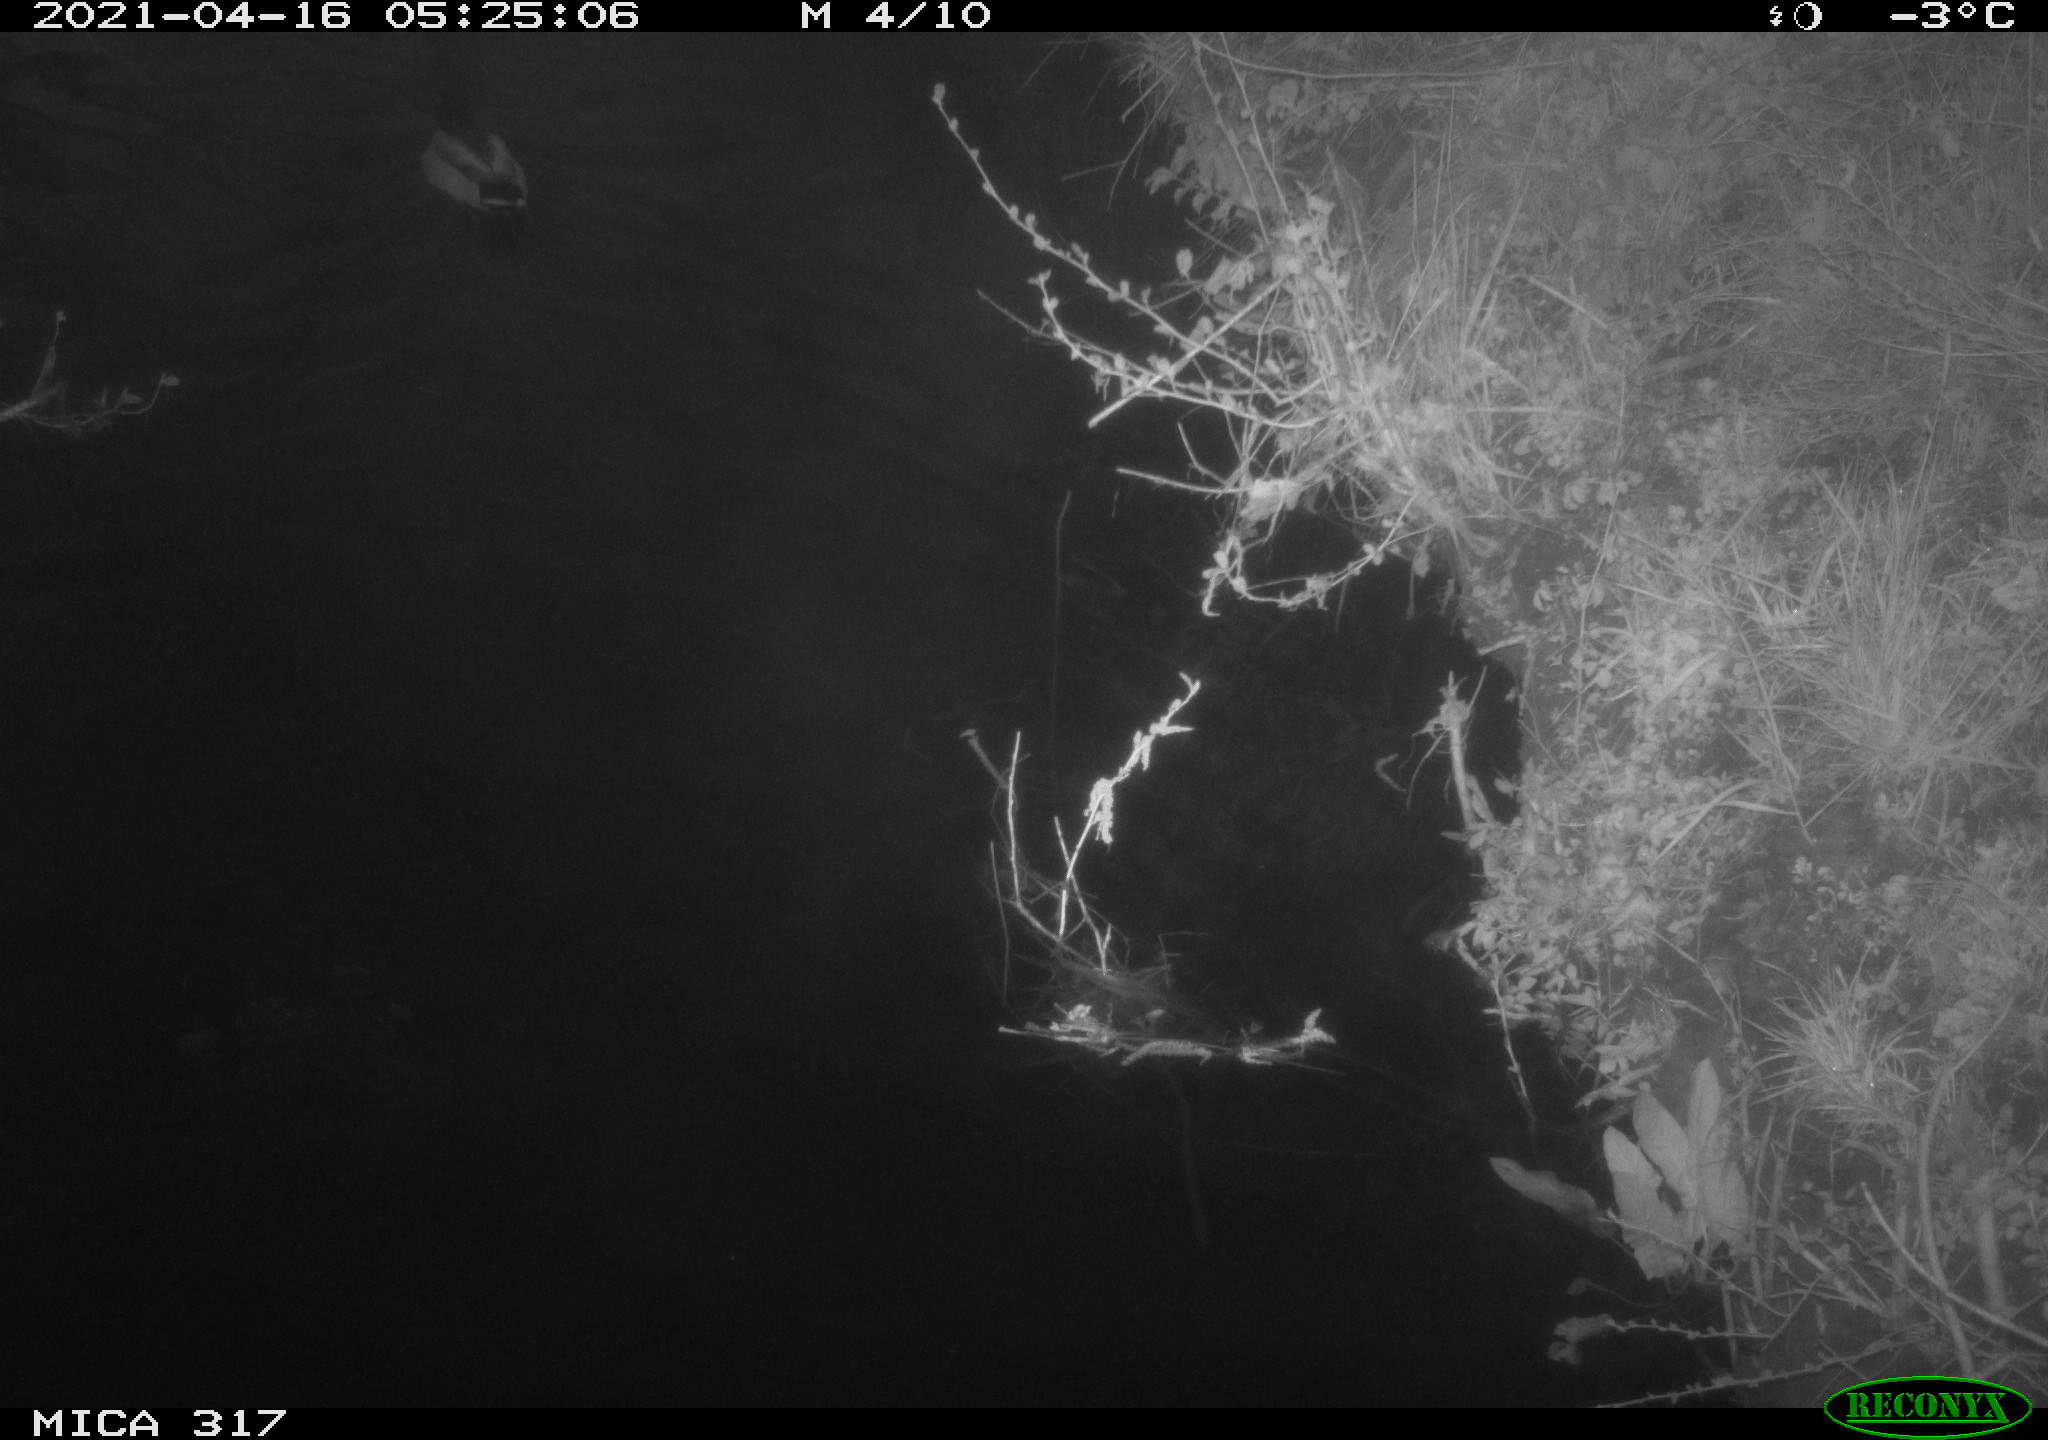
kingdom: Animalia
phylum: Chordata
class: Aves
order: Anseriformes
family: Anatidae
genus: Anas
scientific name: Anas platyrhynchos
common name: Mallard
